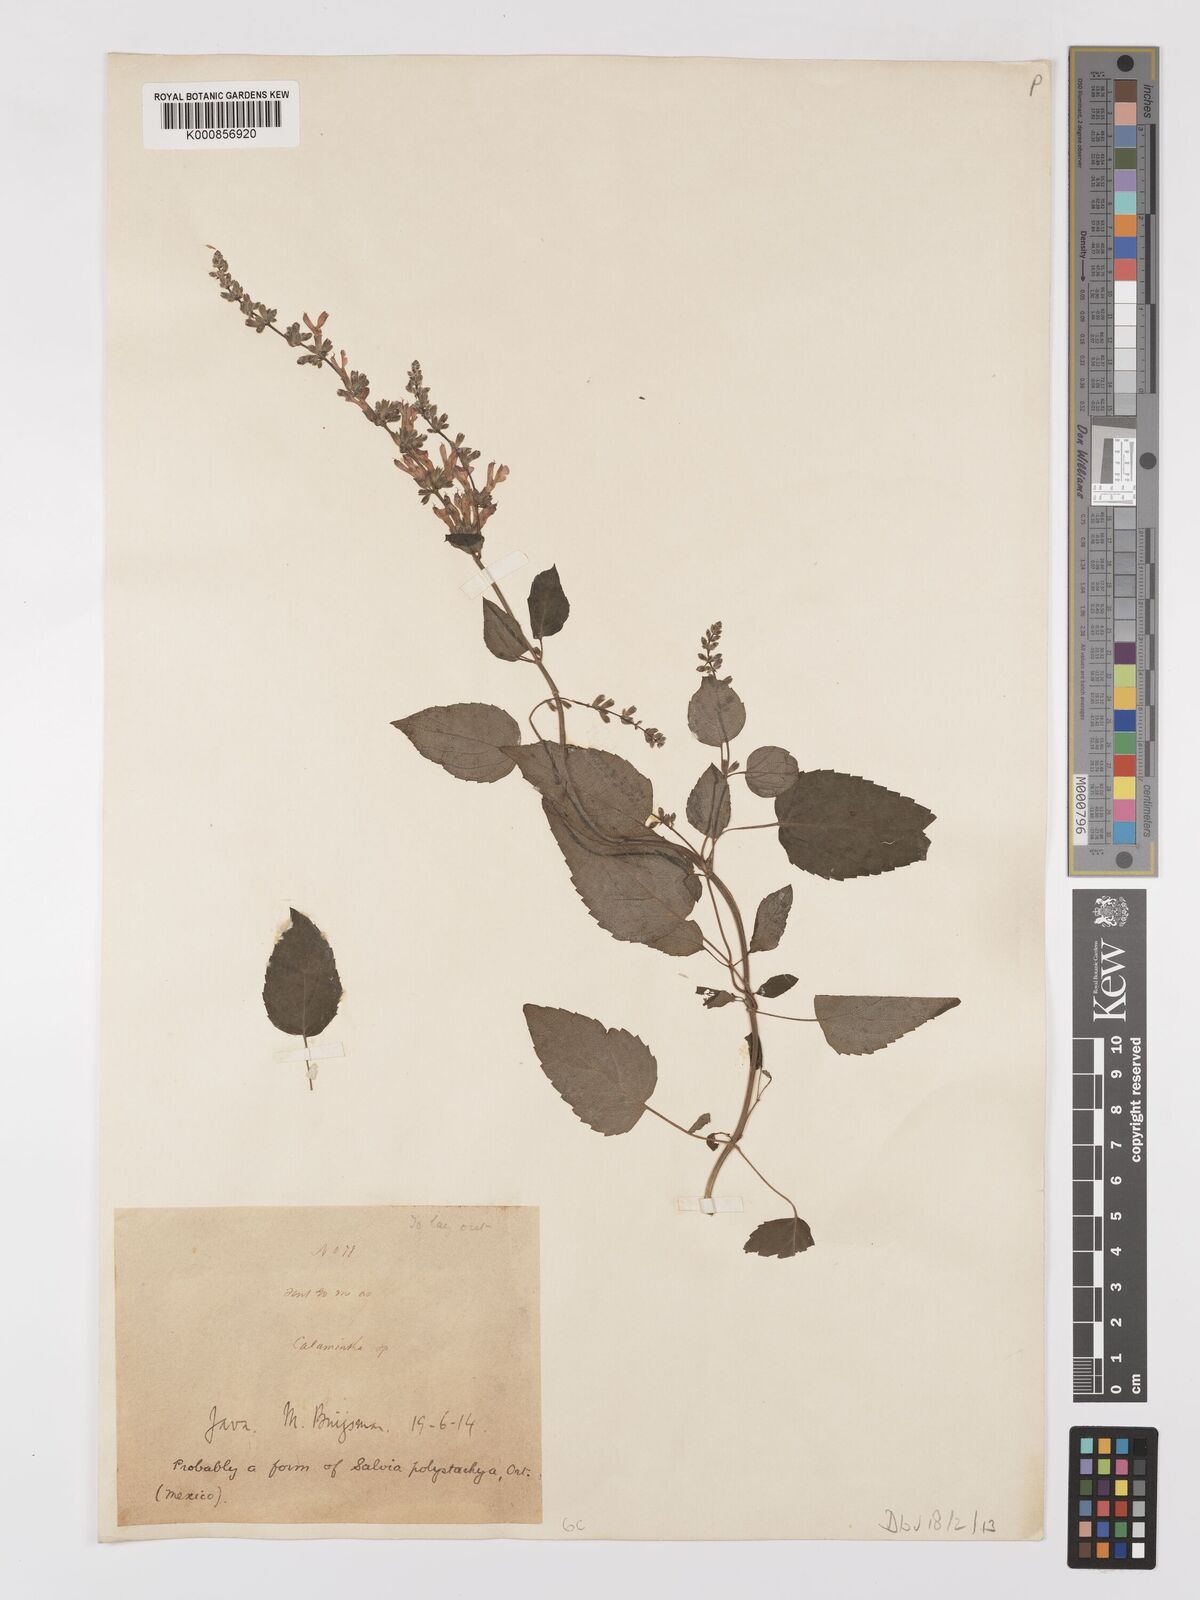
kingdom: Plantae
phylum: Tracheophyta
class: Magnoliopsida
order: Lamiales
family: Lamiaceae
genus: Salvia
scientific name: Salvia
